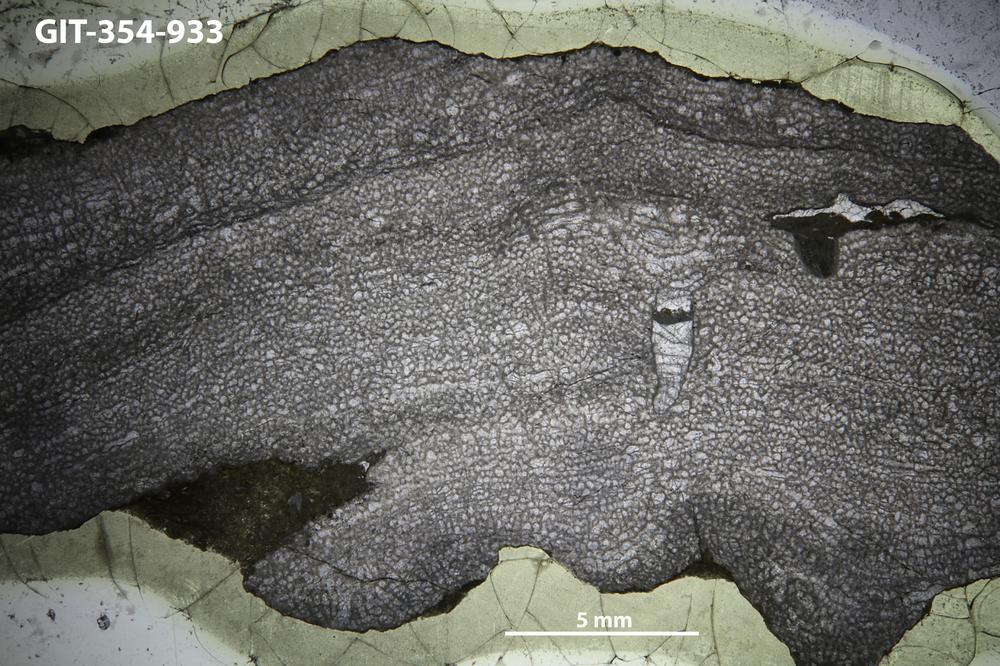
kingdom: Animalia
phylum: Porifera
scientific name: Porifera
